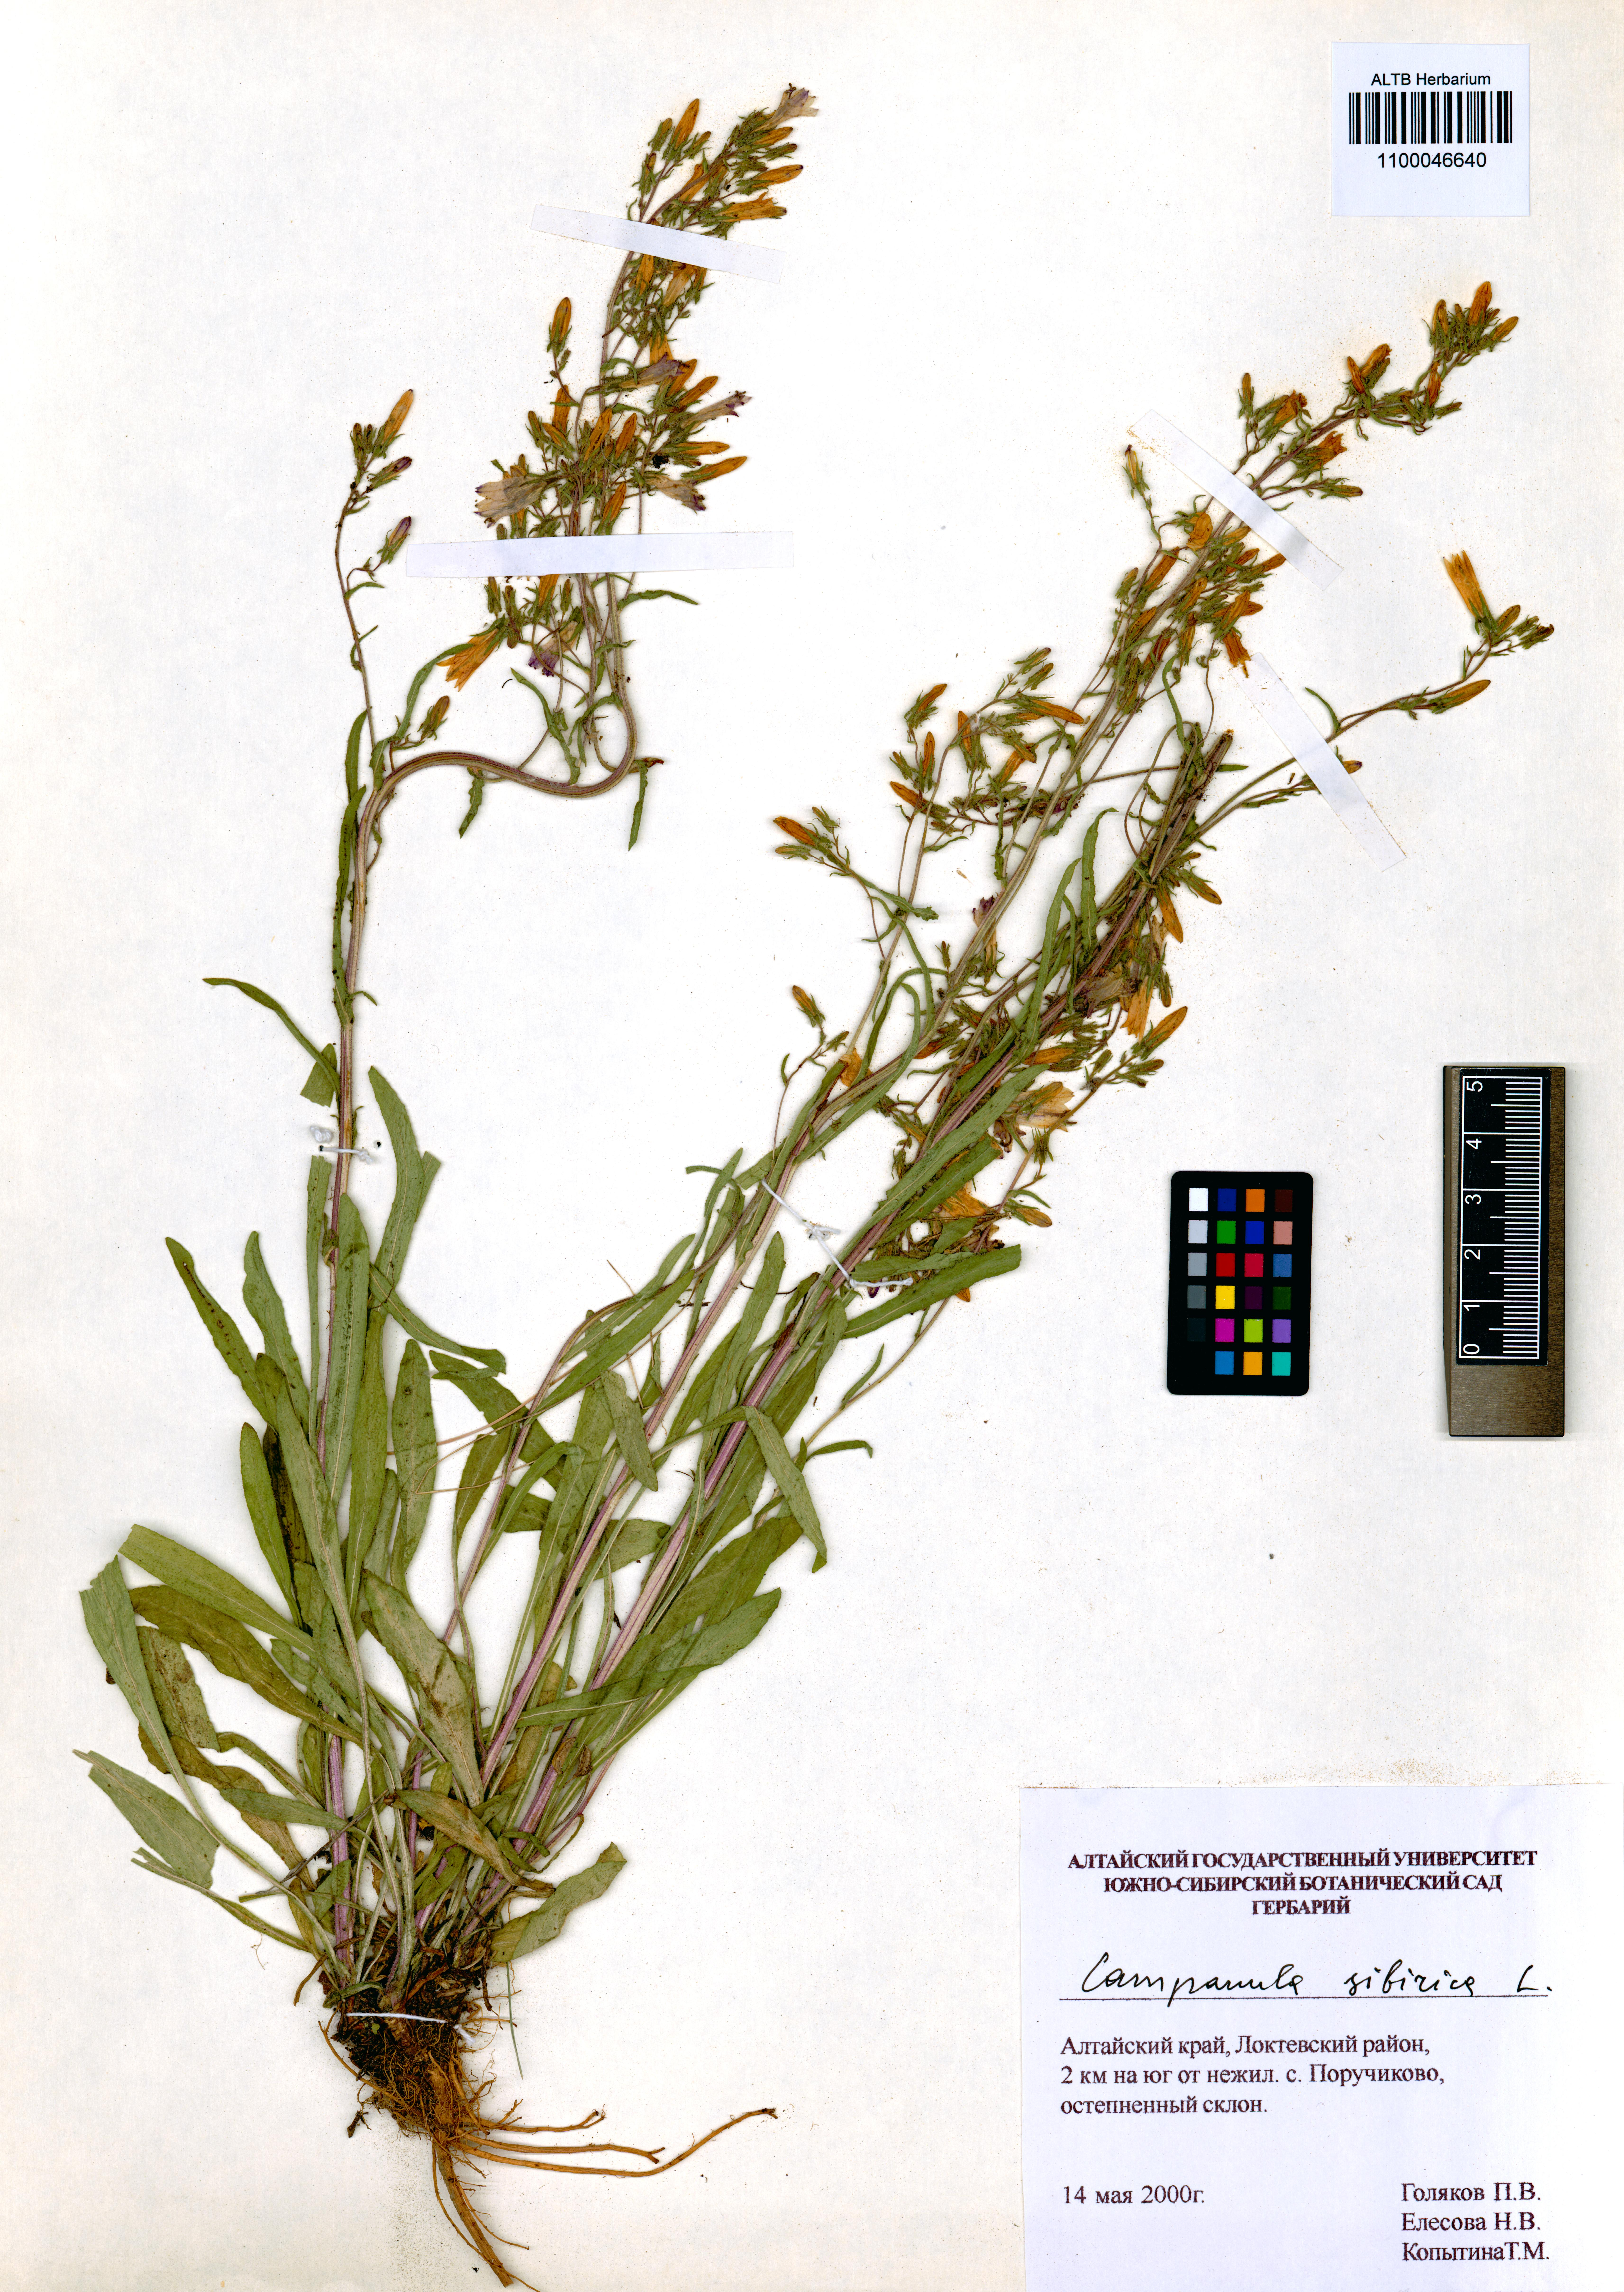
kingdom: Plantae
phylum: Tracheophyta
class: Magnoliopsida
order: Asterales
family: Campanulaceae
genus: Campanula
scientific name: Campanula sibirica
